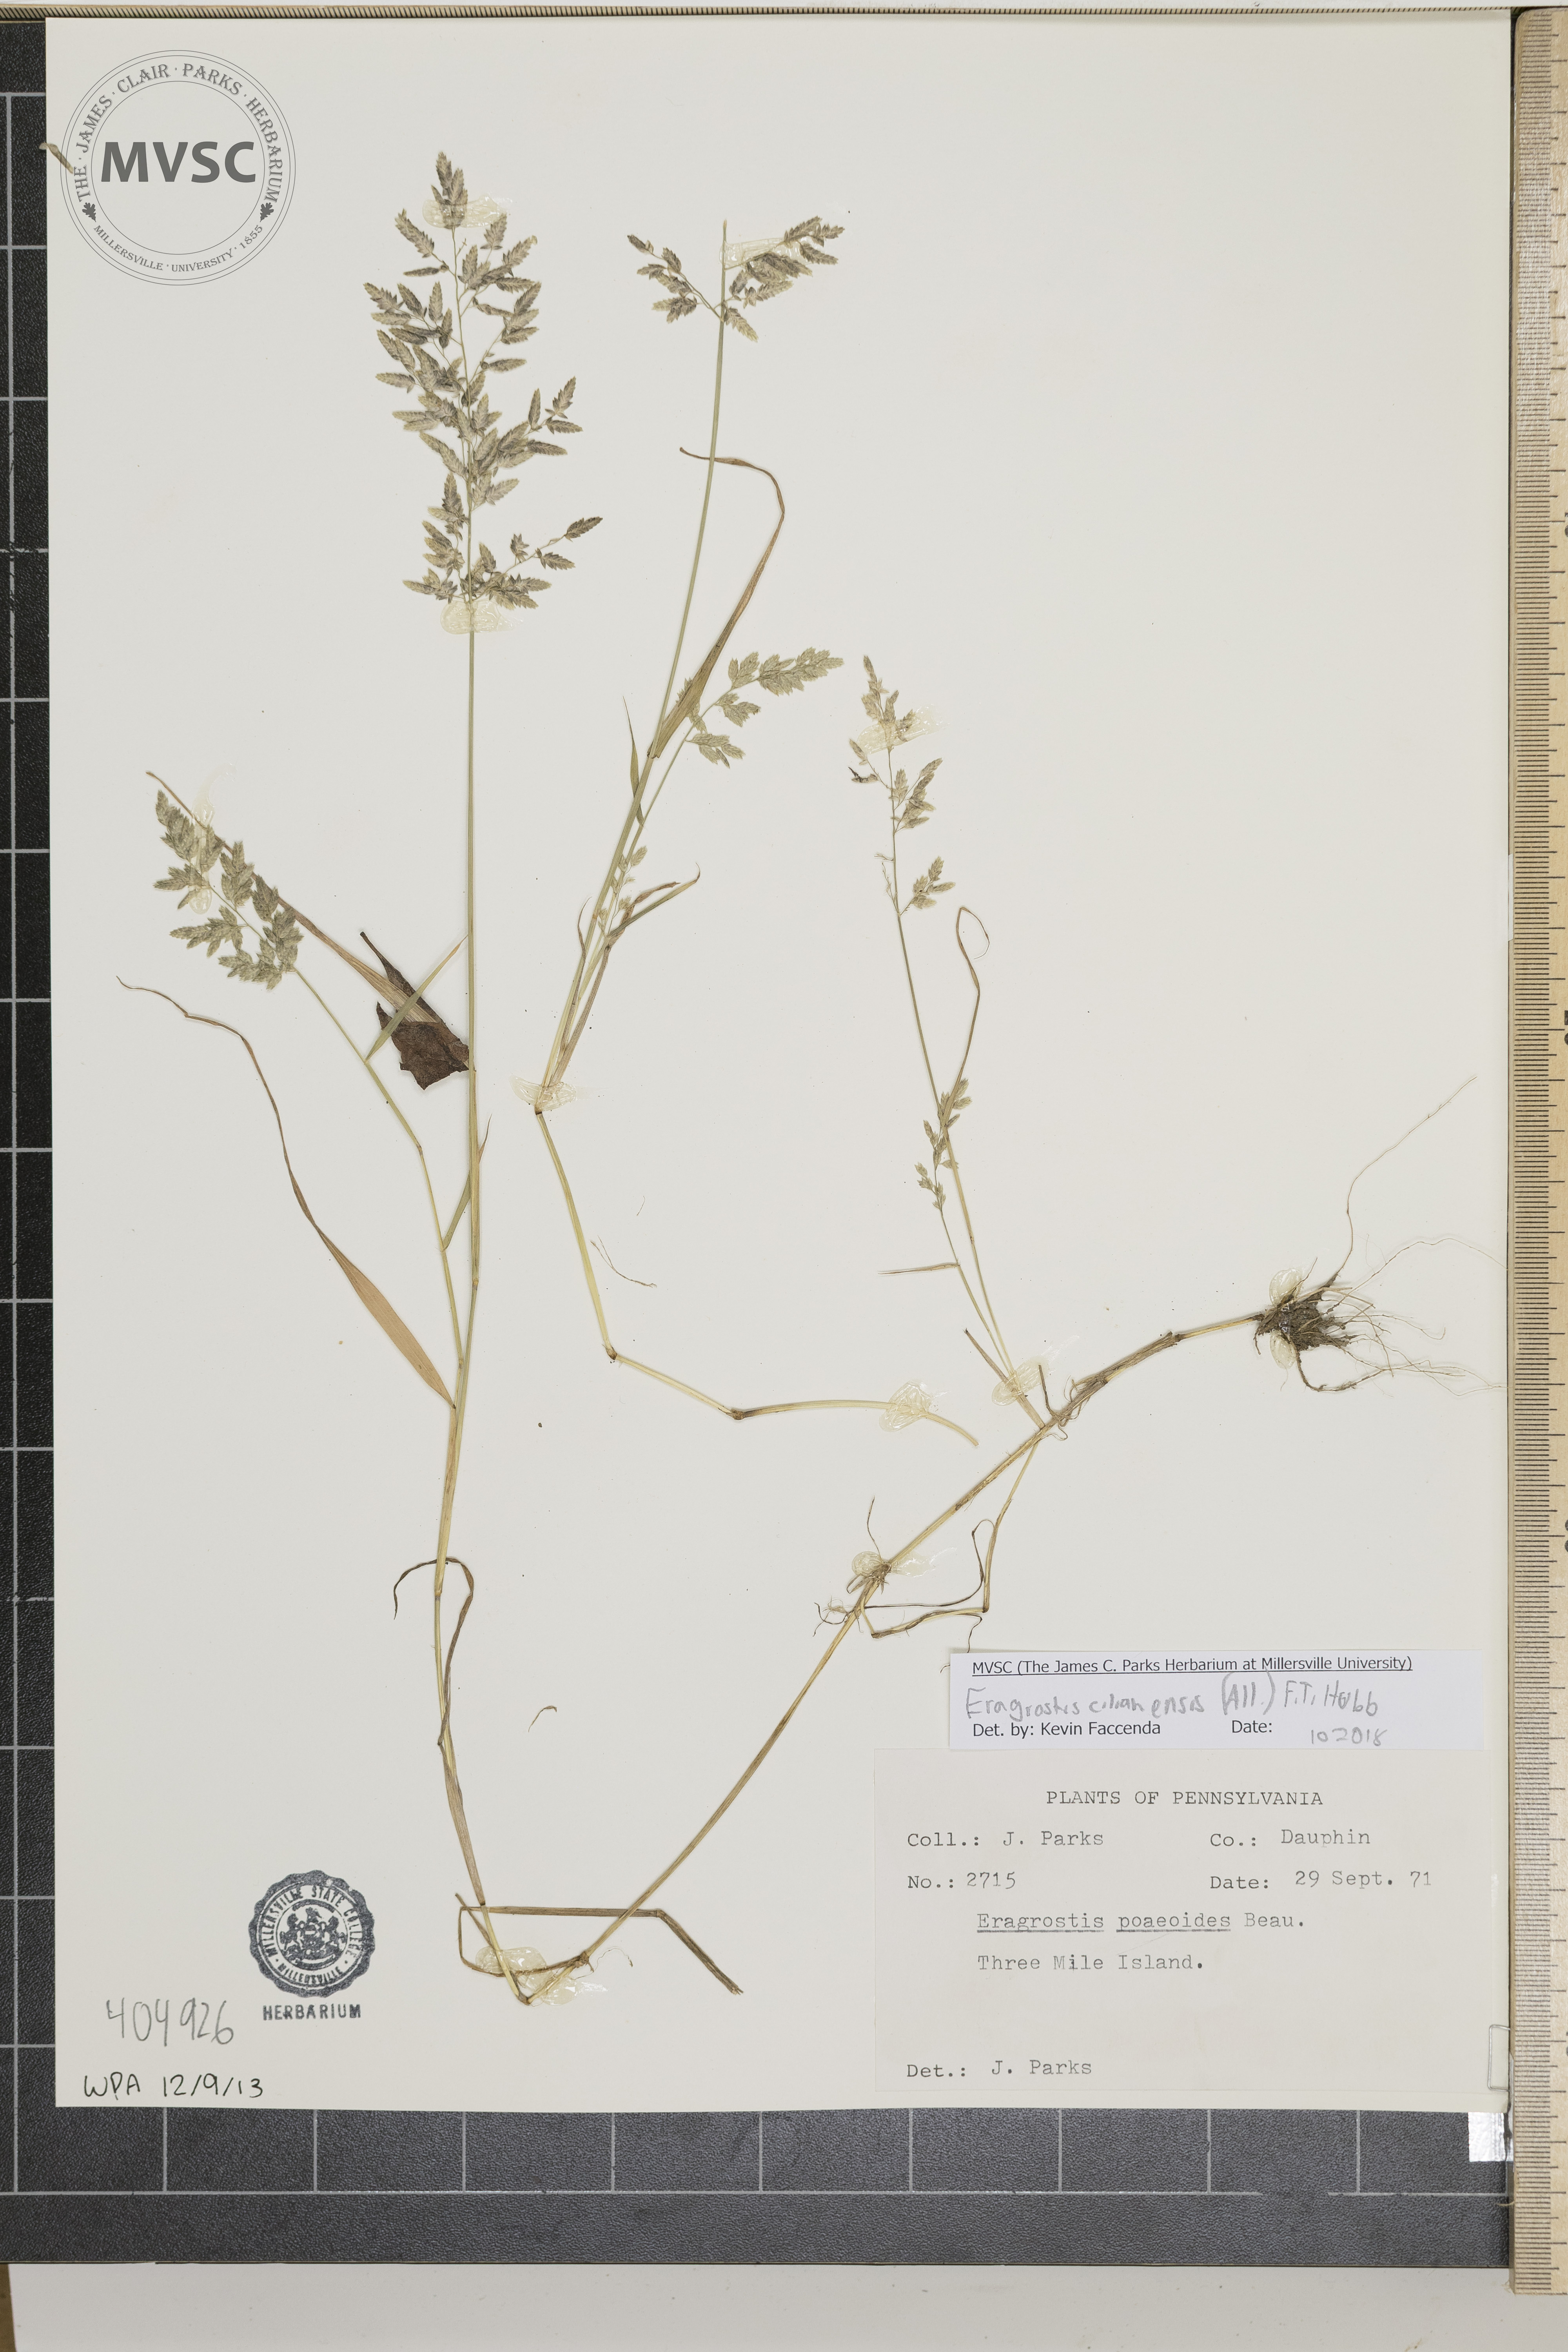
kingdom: Plantae
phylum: Tracheophyta
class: Liliopsida
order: Poales
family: Poaceae
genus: Eragrostis
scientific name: Eragrostis cilianensis
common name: Stinkgrass
